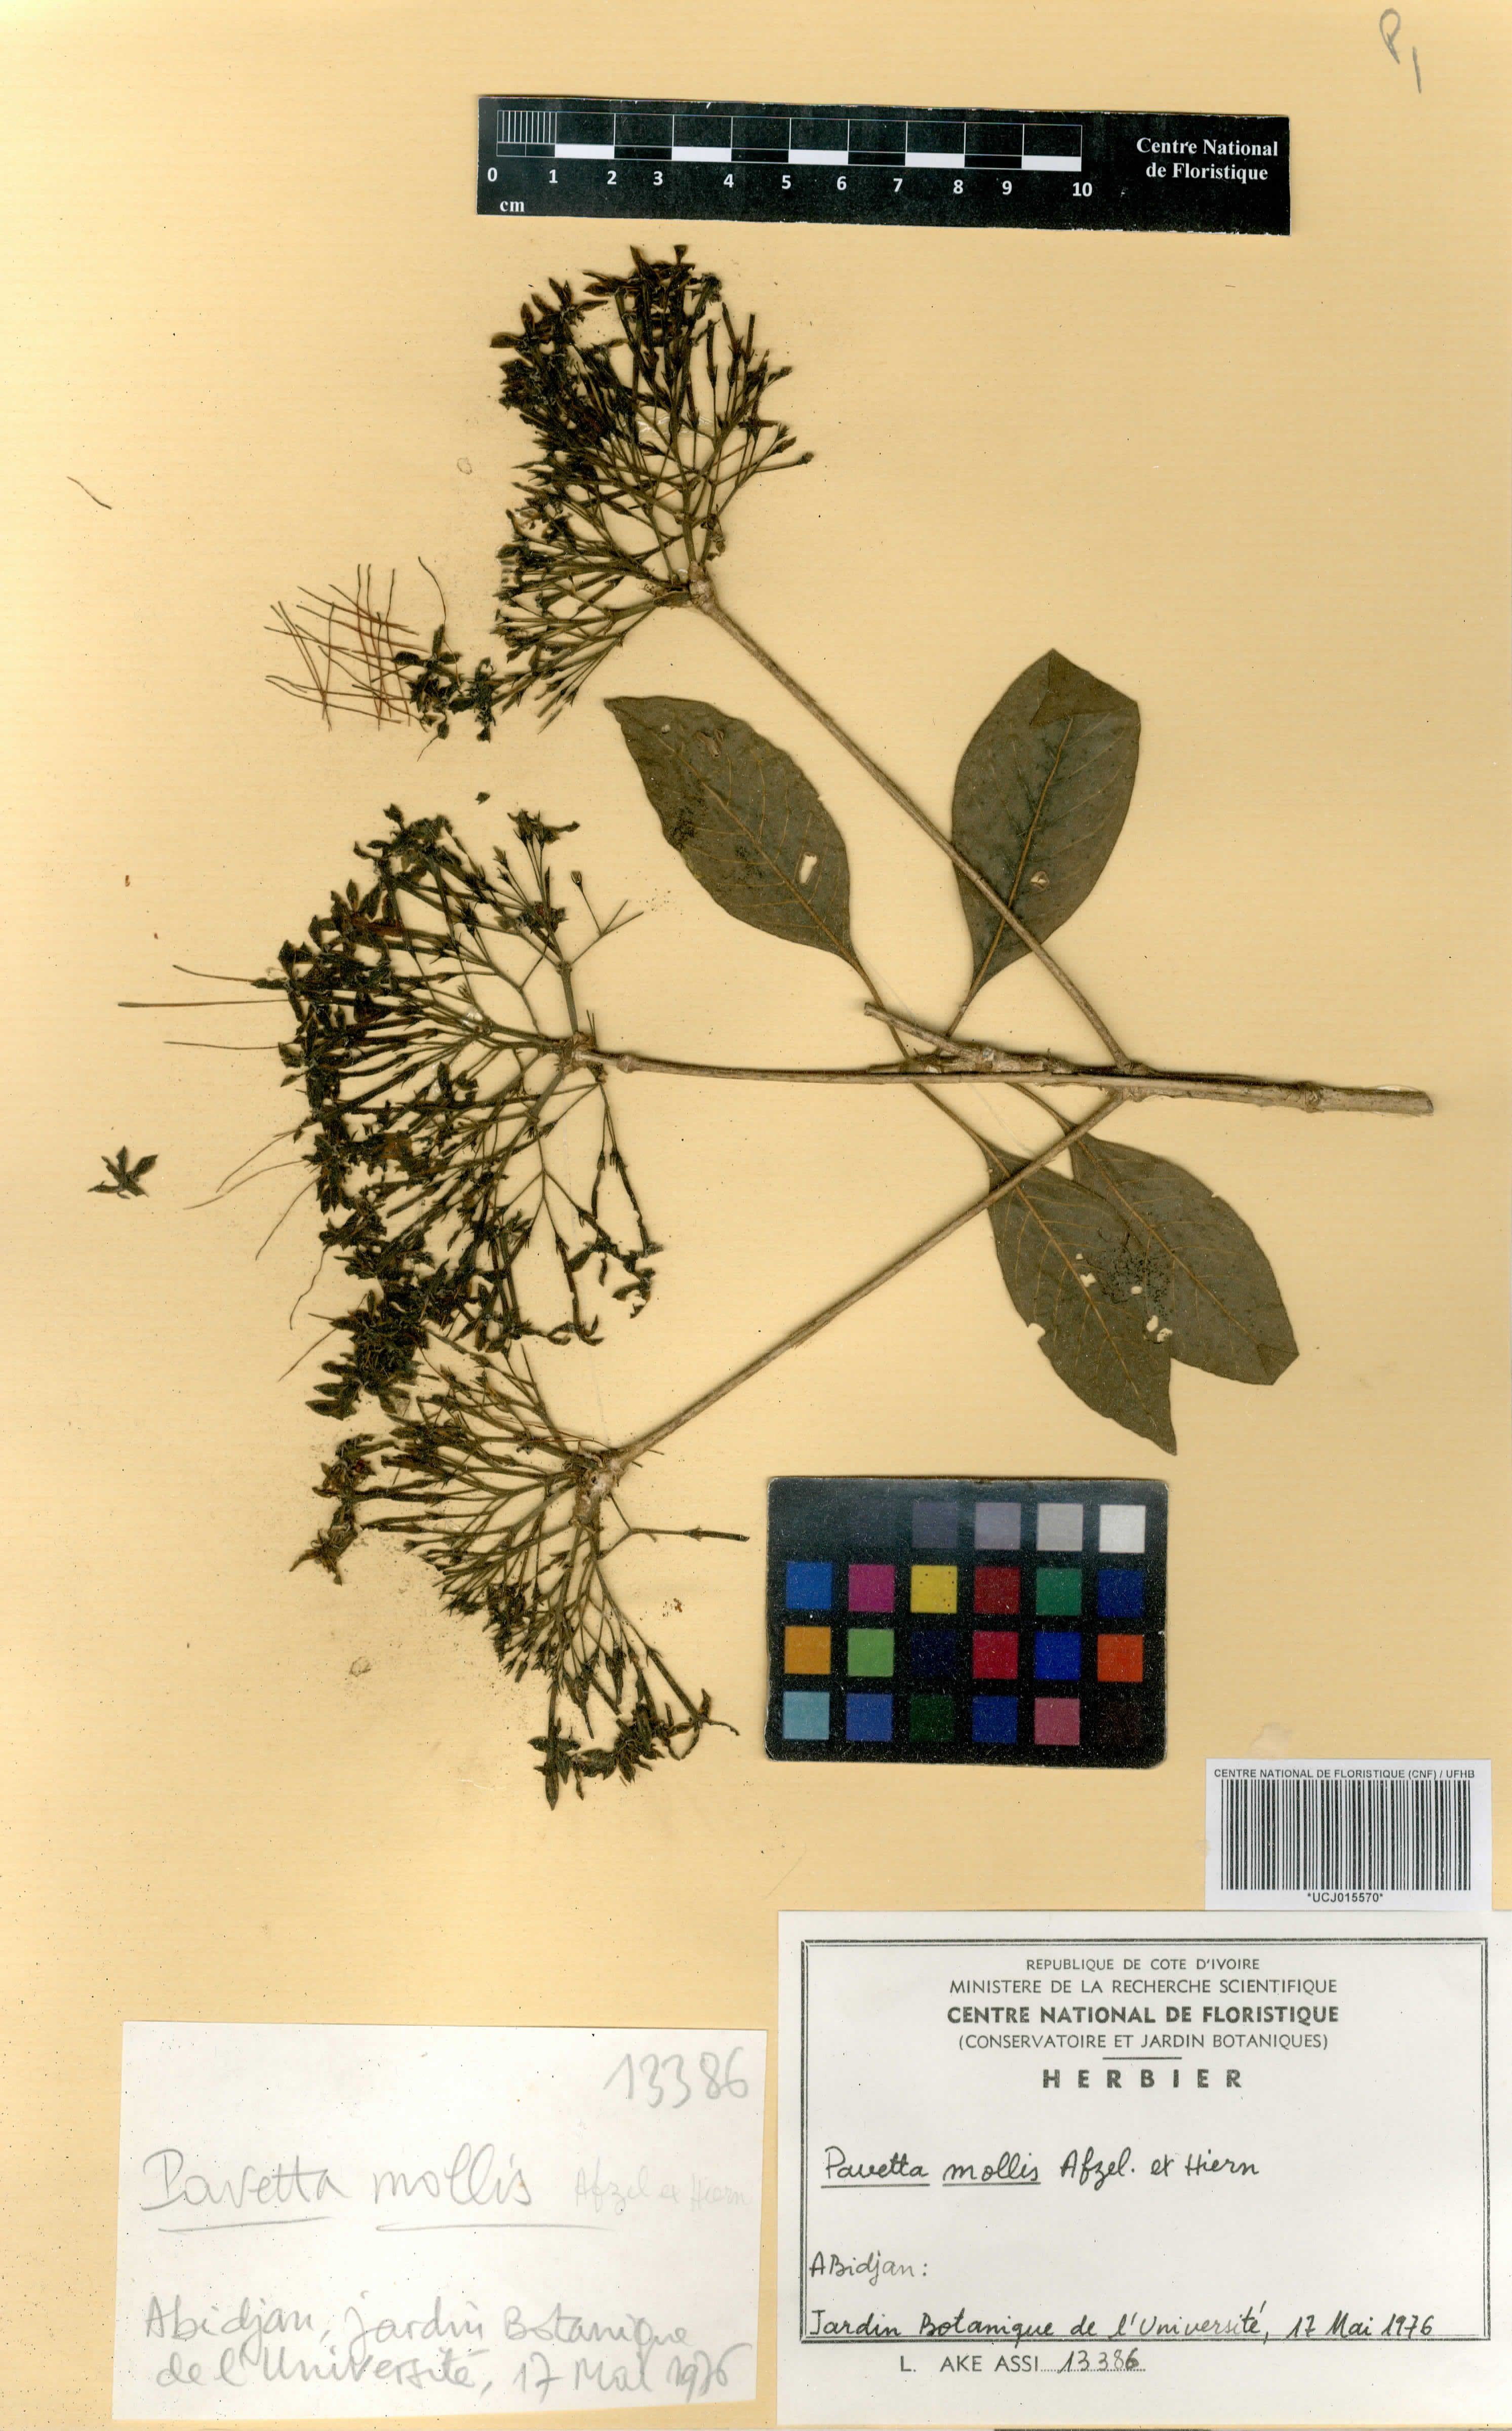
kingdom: Plantae
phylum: Tracheophyta
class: Magnoliopsida
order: Gentianales
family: Rubiaceae
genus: Pavetta
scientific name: Pavetta mollis
